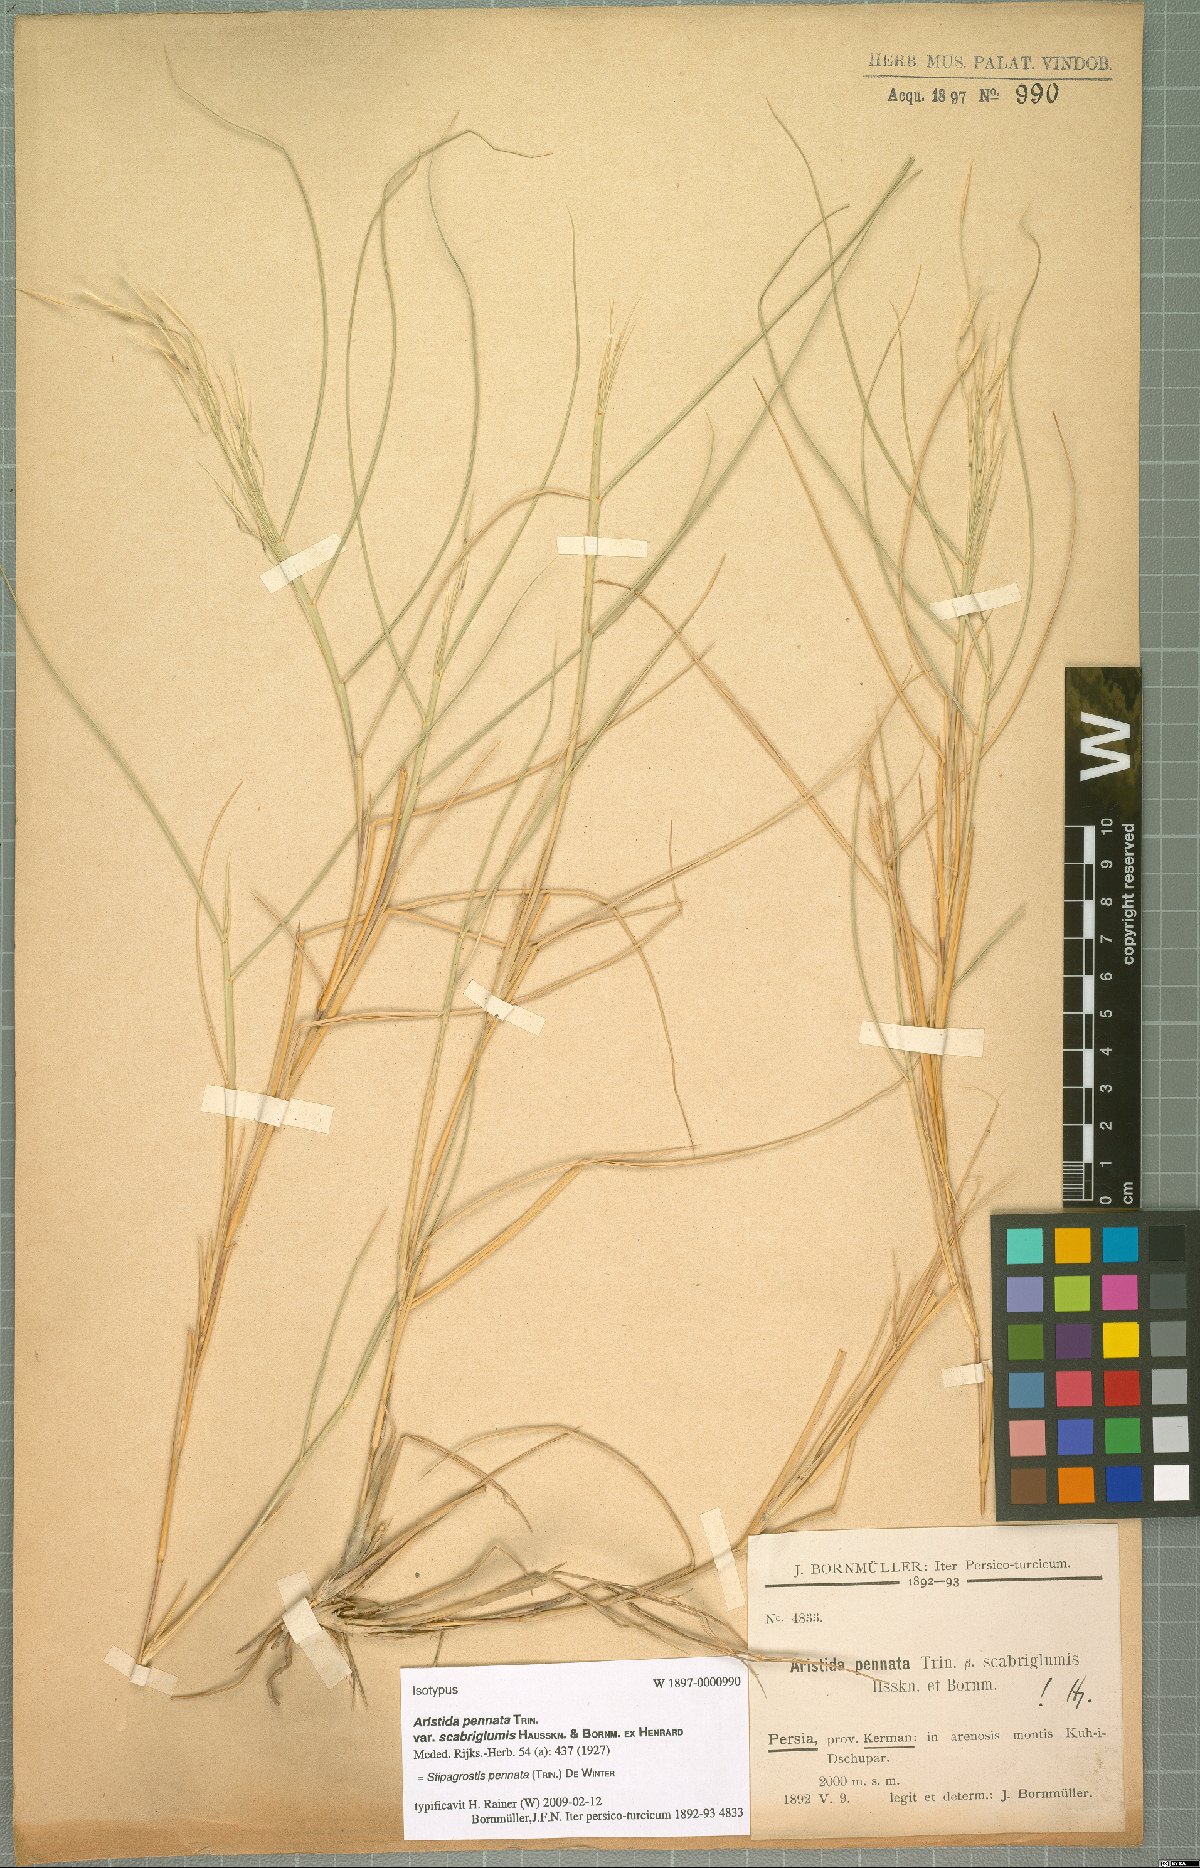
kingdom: Plantae
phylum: Tracheophyta
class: Liliopsida
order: Poales
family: Poaceae
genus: Stipagrostis
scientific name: Stipagrostis pennata
